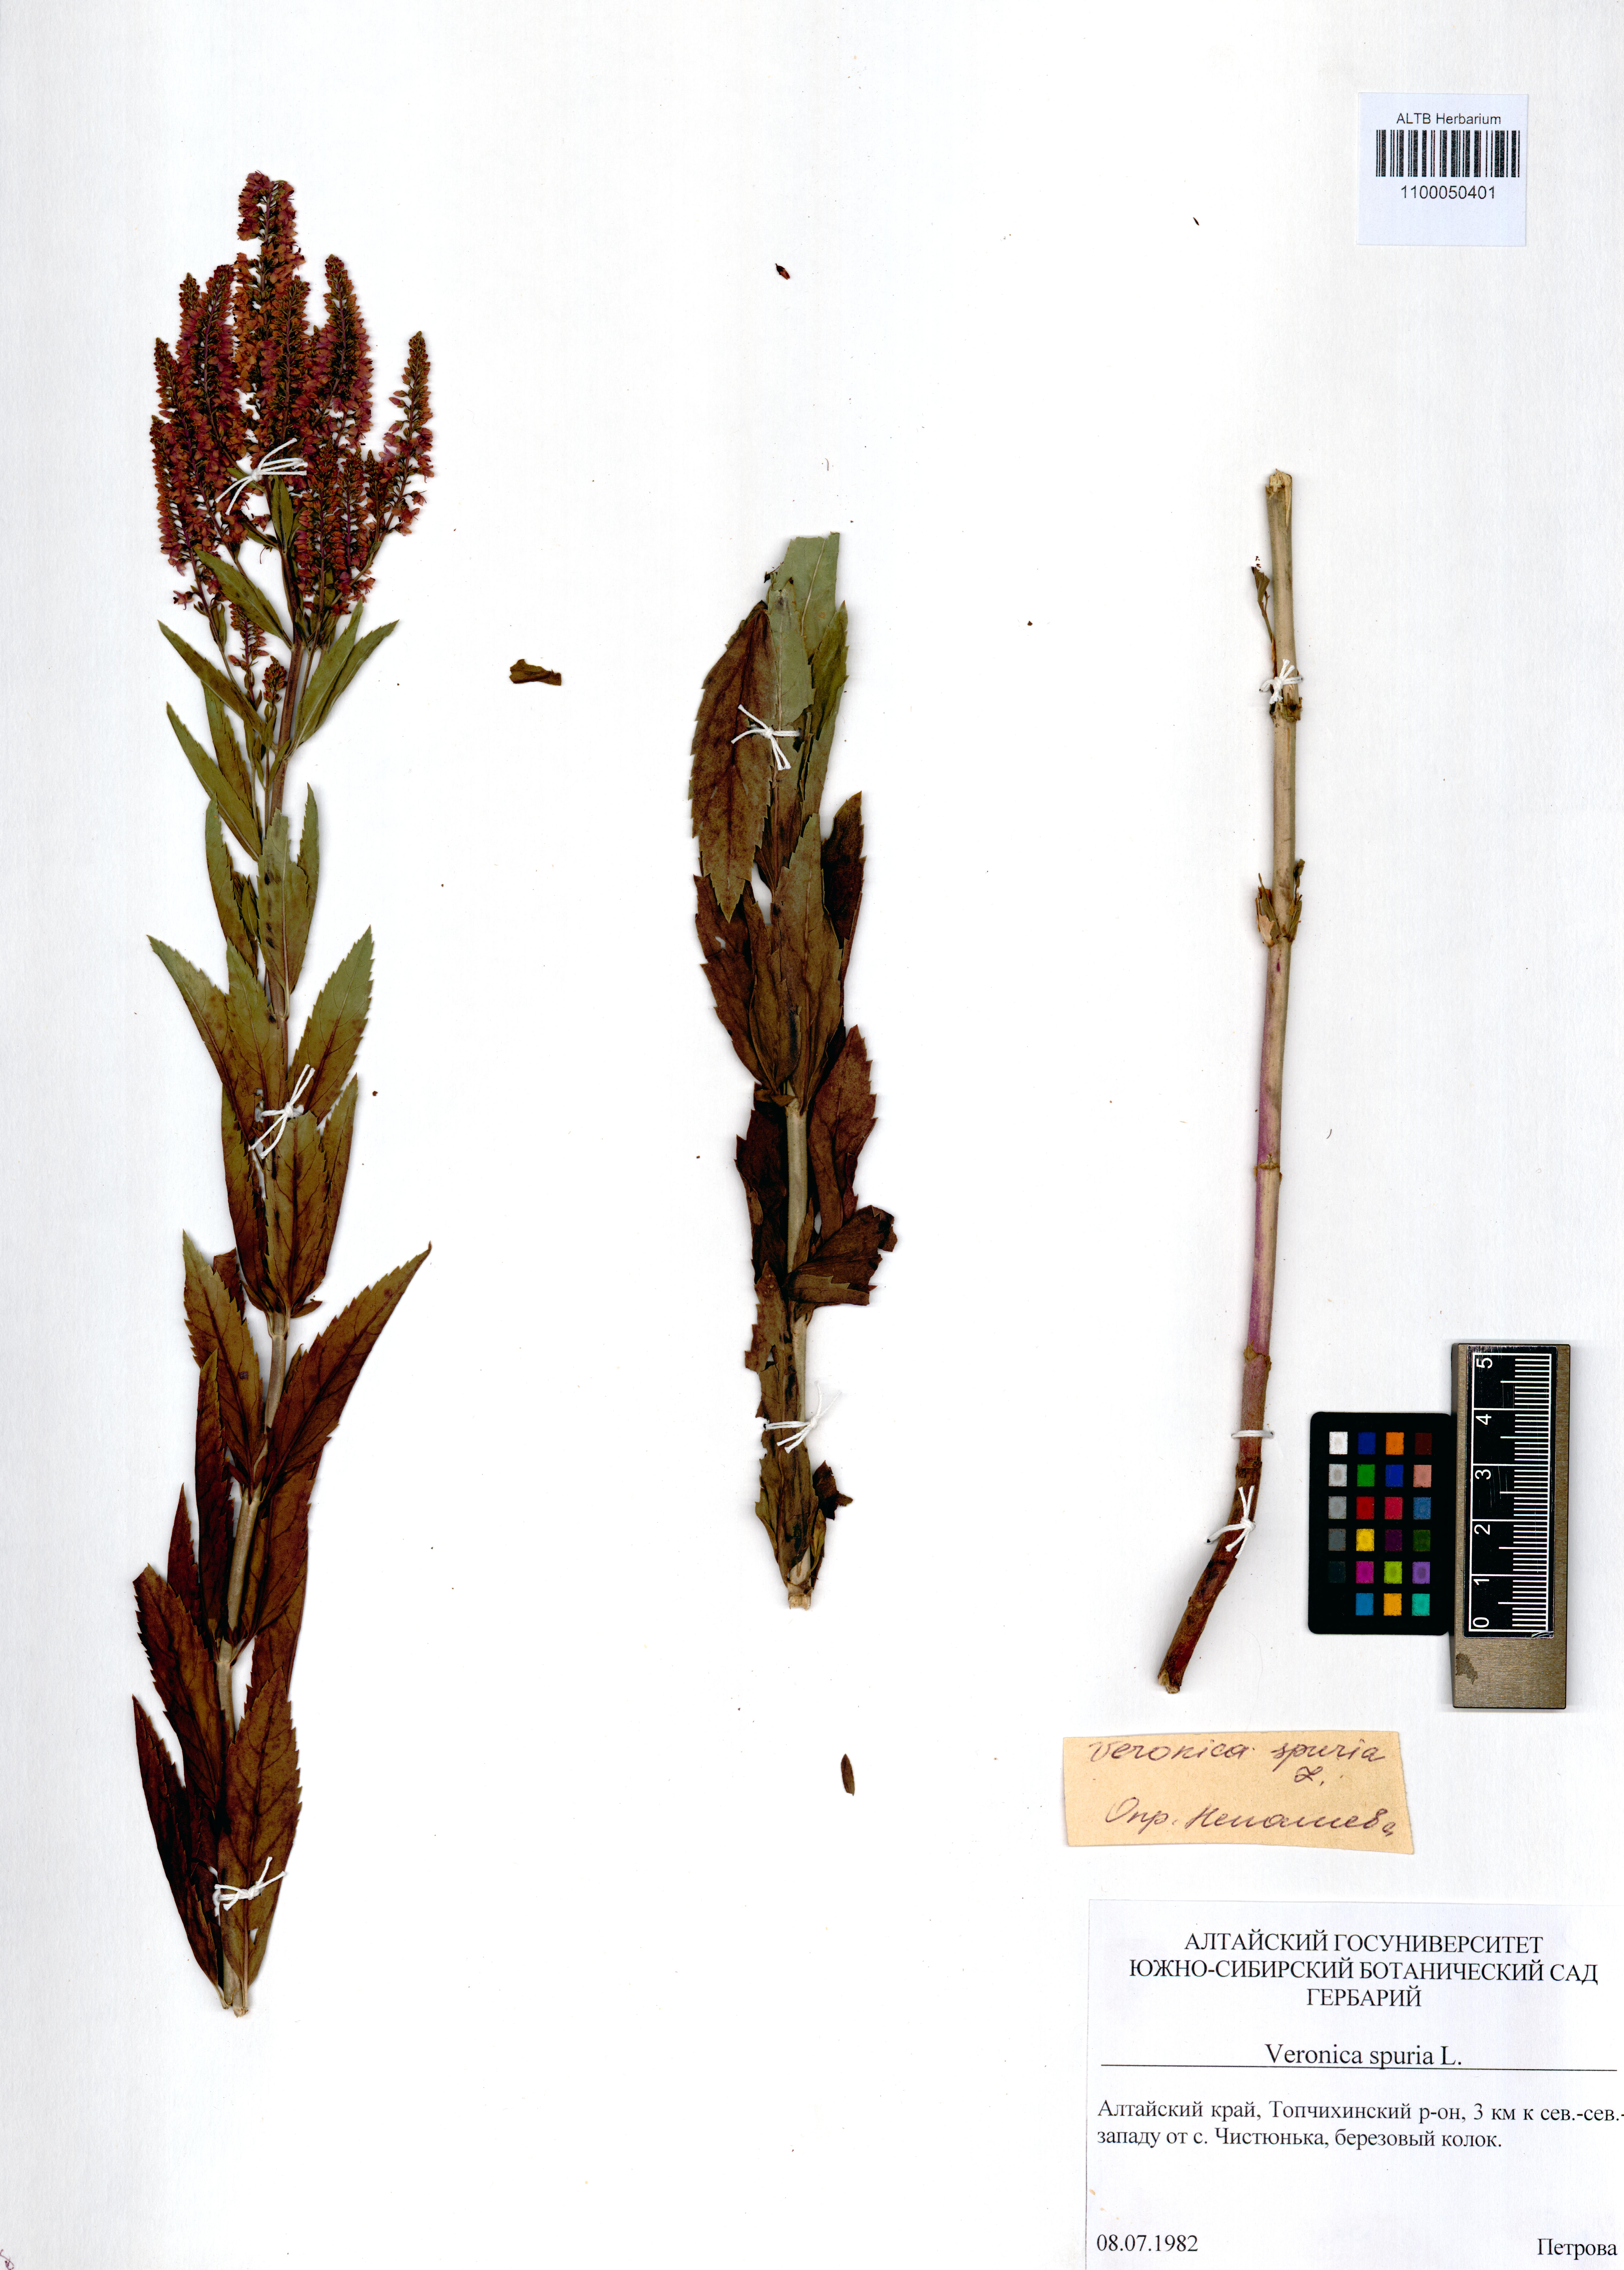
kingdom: Plantae
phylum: Tracheophyta
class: Magnoliopsida
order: Lamiales
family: Plantaginaceae
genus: Veronica
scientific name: Veronica spuria
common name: Bastard speedwell
